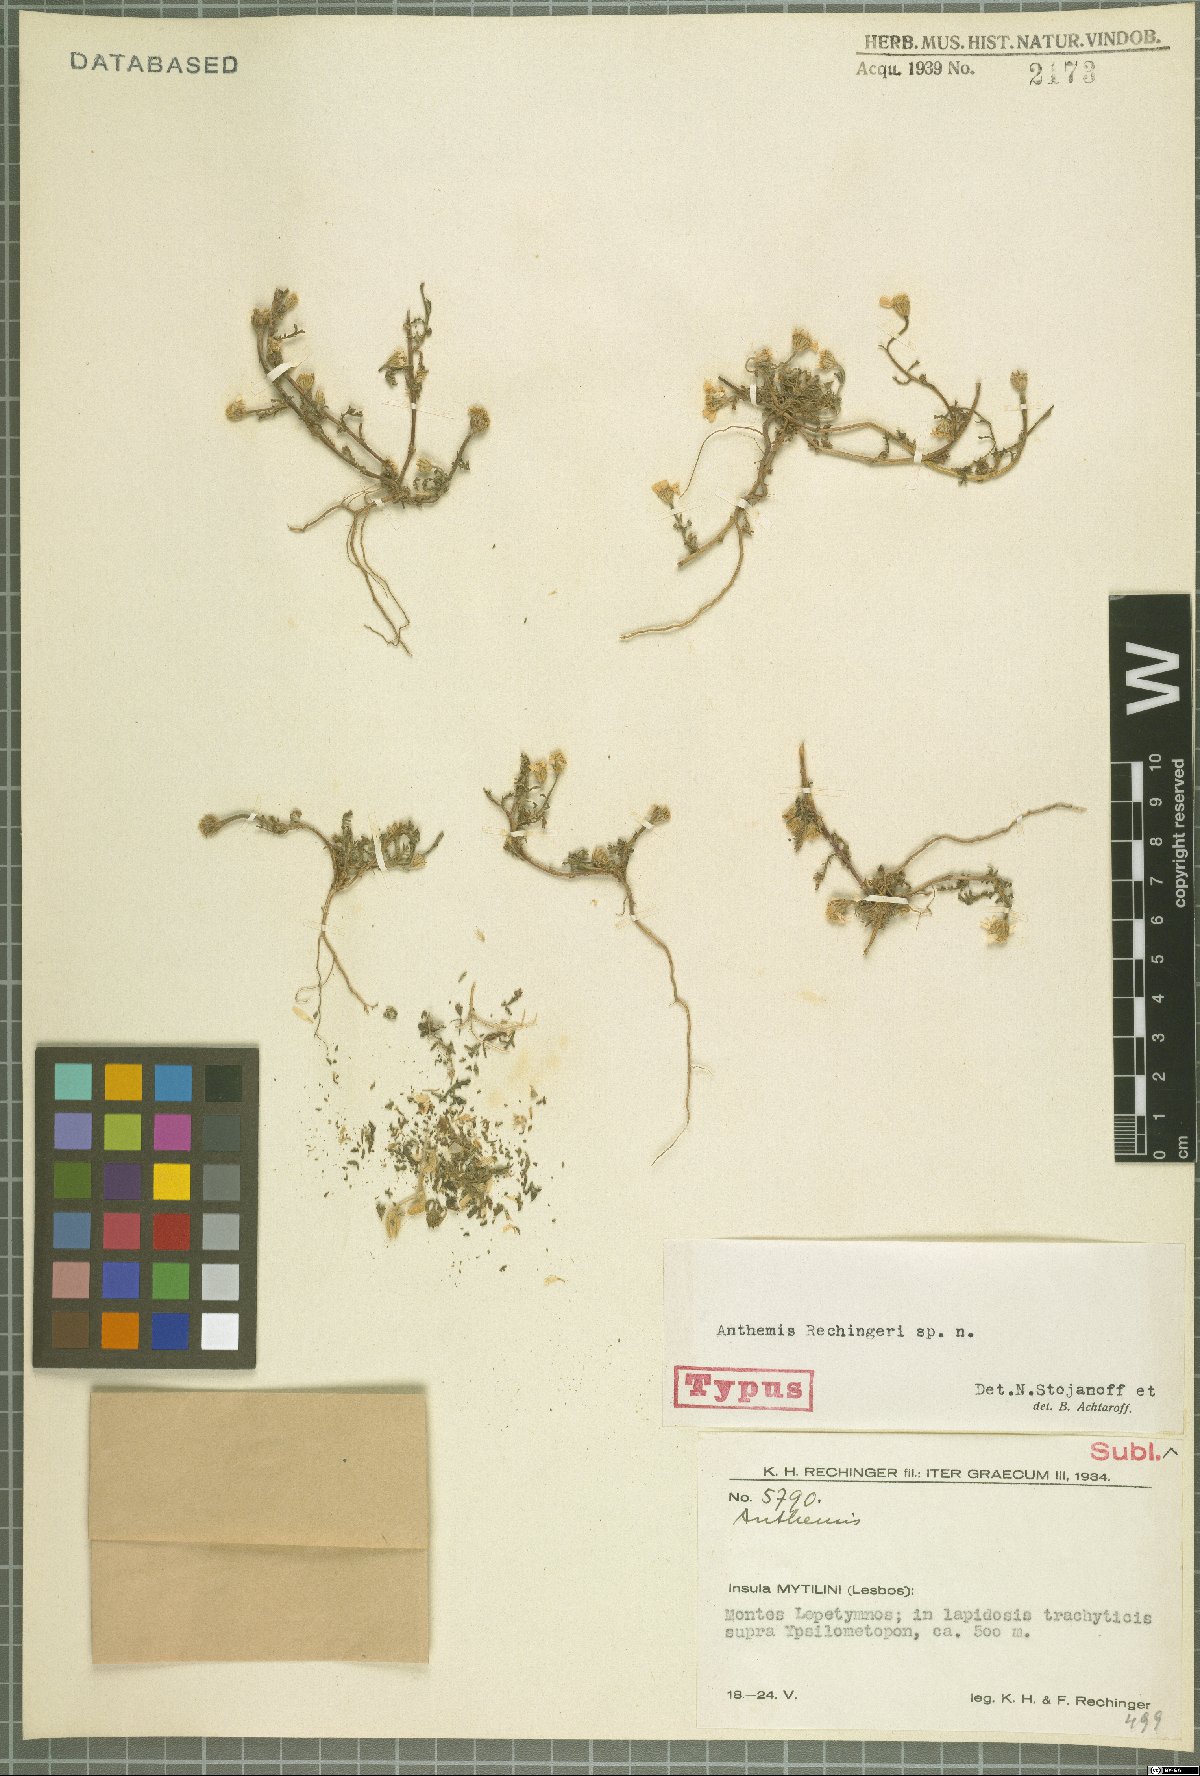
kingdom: Plantae
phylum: Tracheophyta
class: Magnoliopsida
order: Asterales
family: Asteraceae
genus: Anthemis
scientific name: Anthemis
